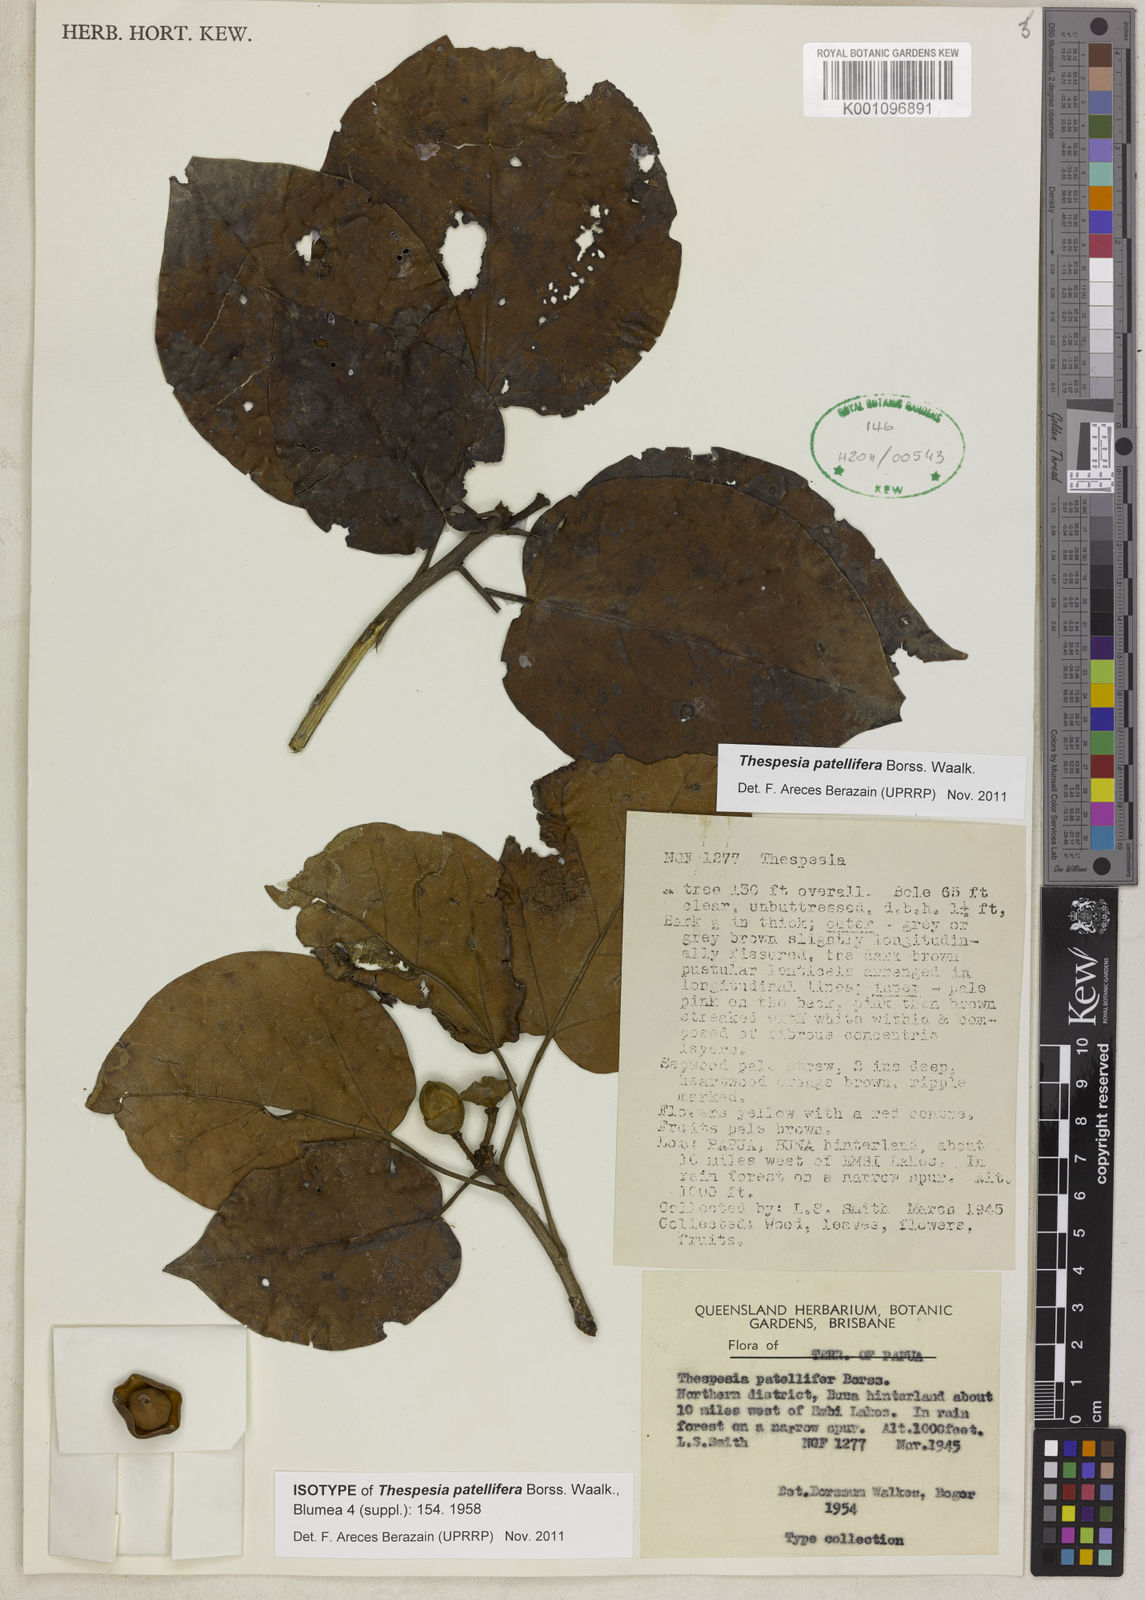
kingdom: Plantae
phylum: Tracheophyta
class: Magnoliopsida
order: Malvales
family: Malvaceae
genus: Thespesia
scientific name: Thespesia patellifera
